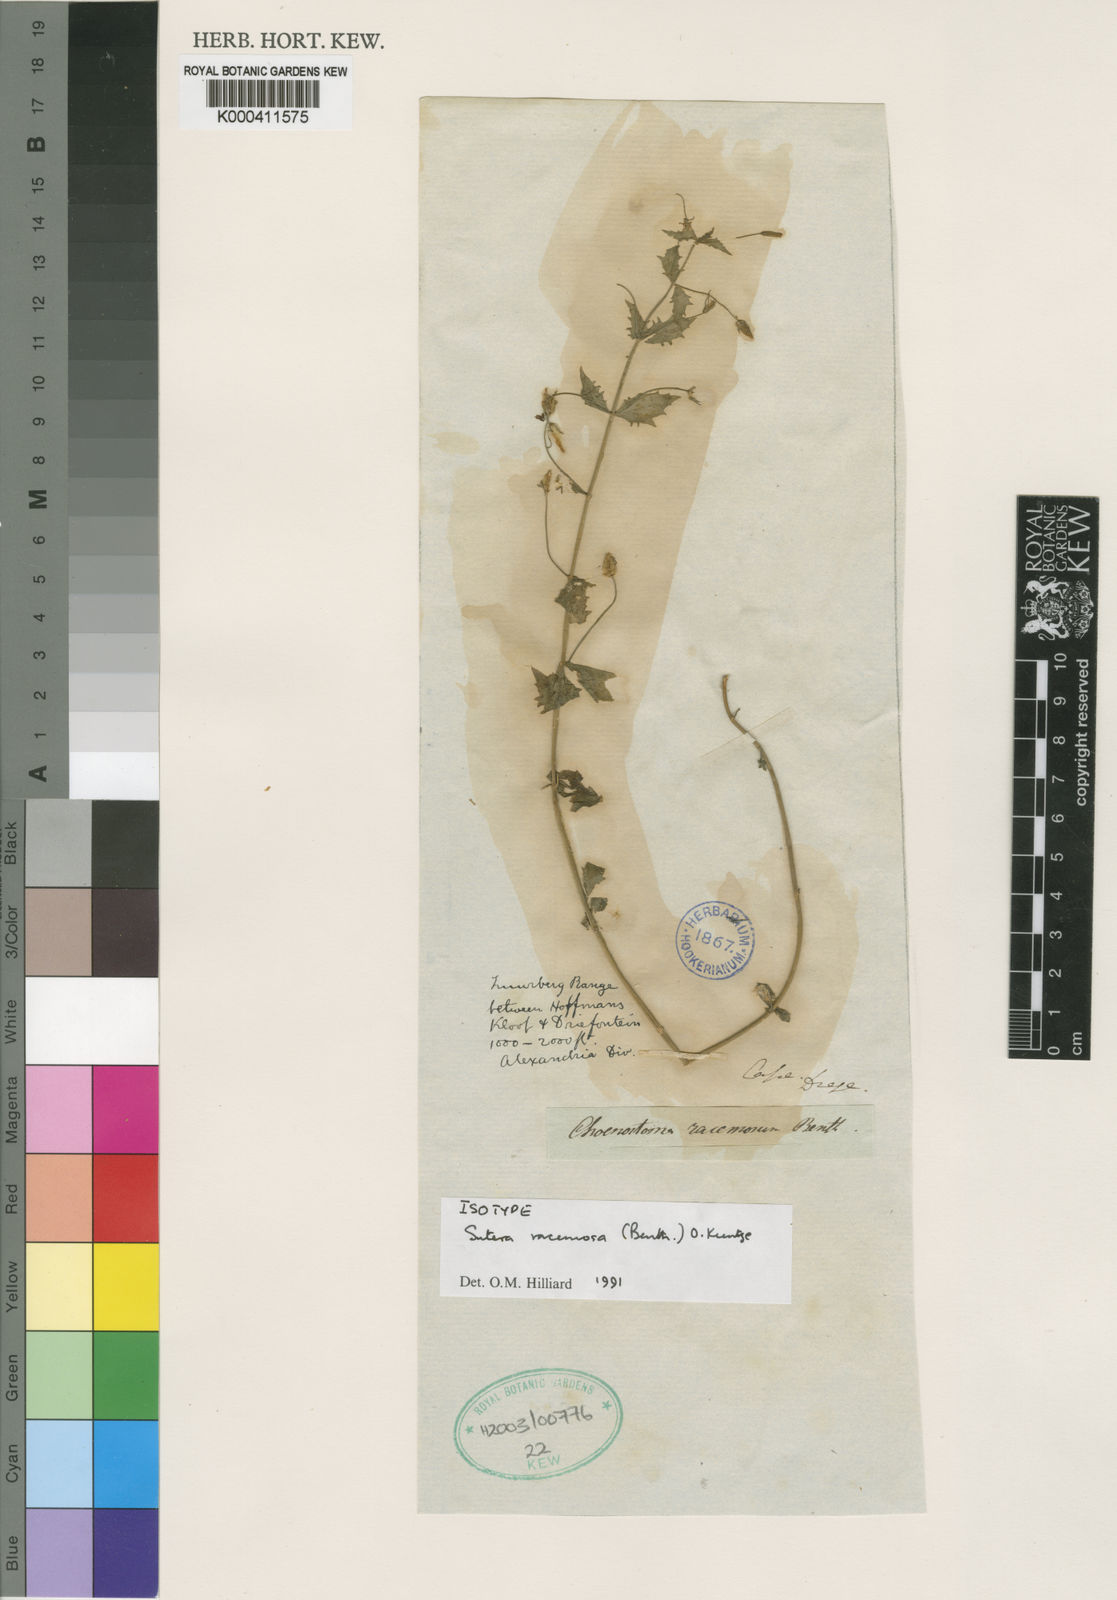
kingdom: Plantae
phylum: Tracheophyta
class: Magnoliopsida
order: Lamiales
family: Scrophulariaceae
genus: Chaenostoma
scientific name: Chaenostoma racemosum
